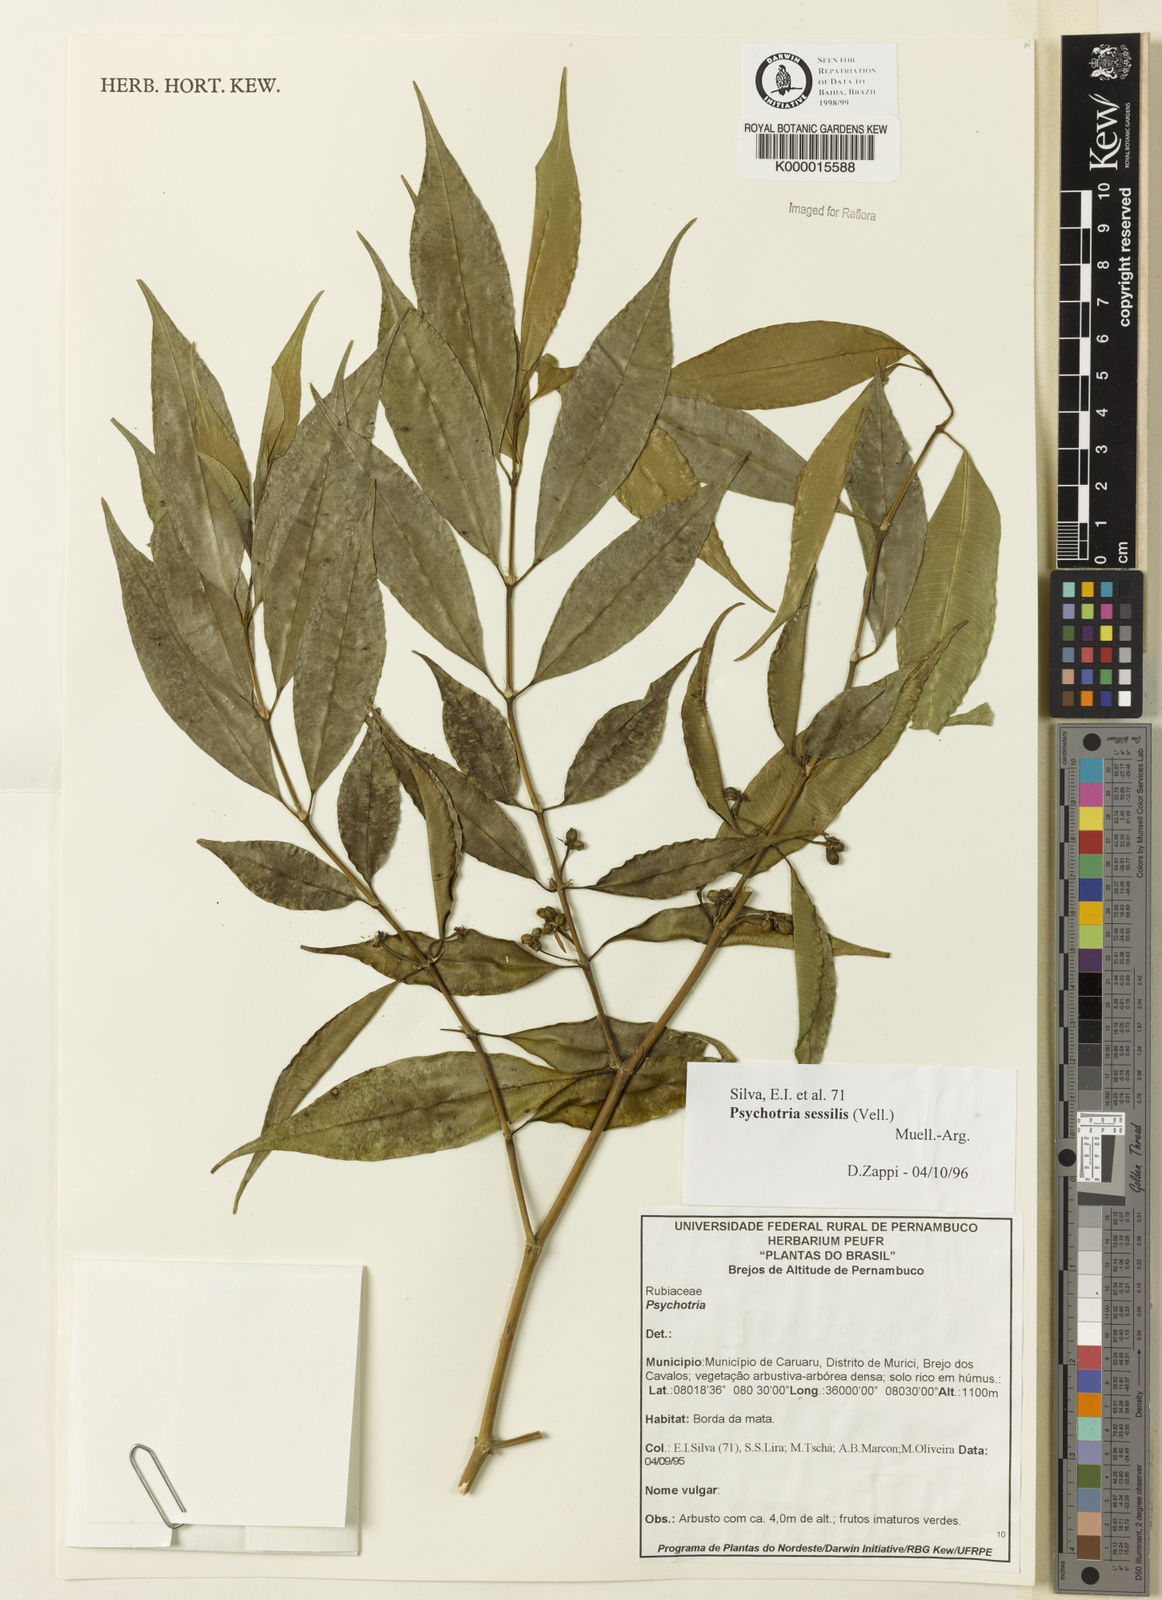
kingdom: Plantae
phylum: Tracheophyta
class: Magnoliopsida
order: Gentianales
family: Rubiaceae
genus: Psychotria
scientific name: Psychotria
